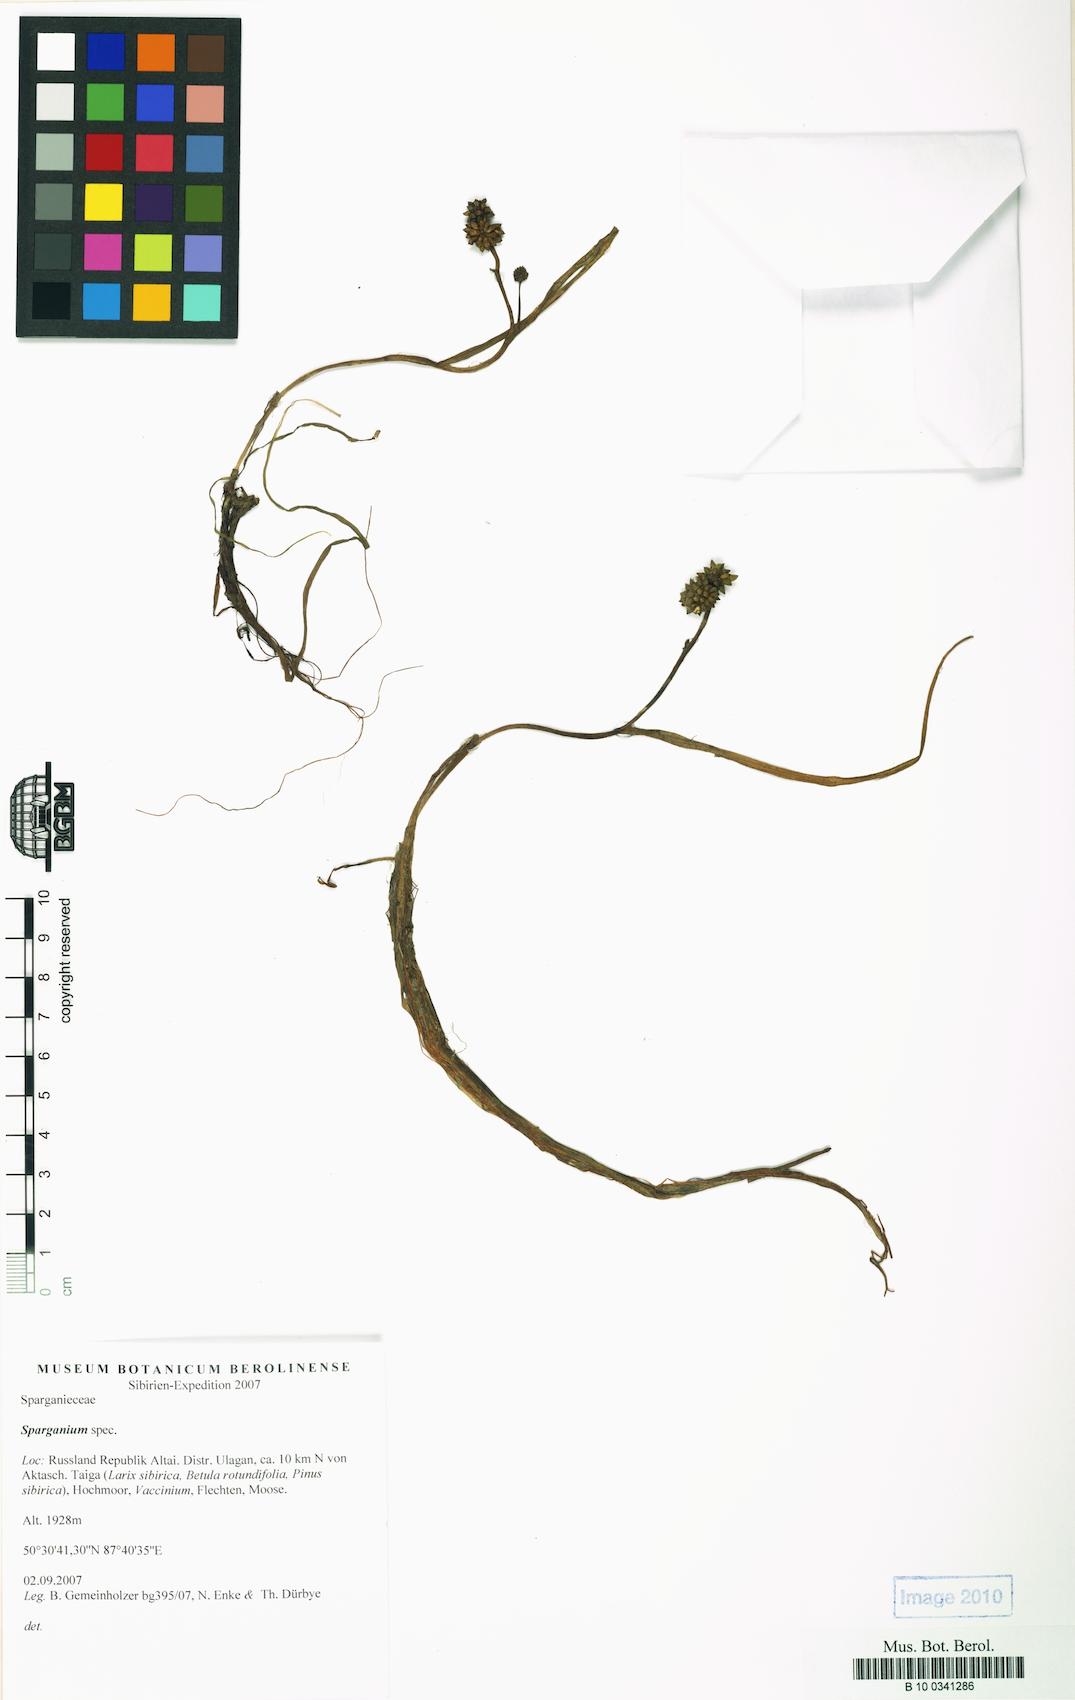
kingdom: Plantae
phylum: Tracheophyta
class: Liliopsida
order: Poales
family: Typhaceae
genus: Sparganium
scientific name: Sparganium hyperboreum
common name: Arctic burreed
